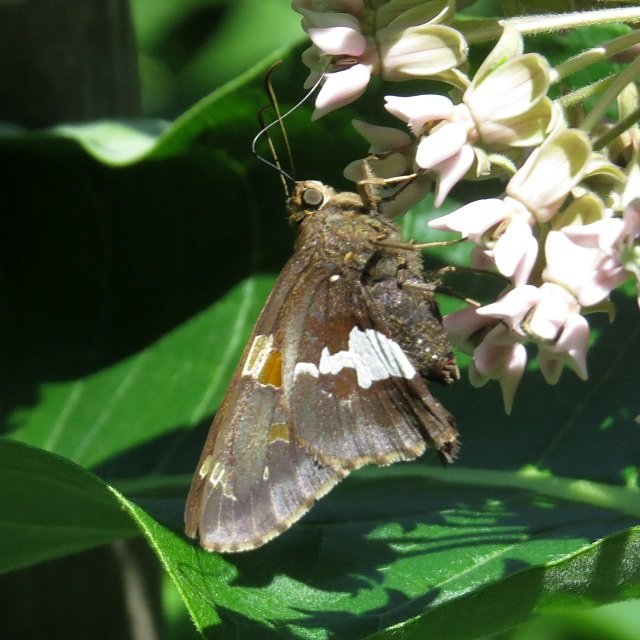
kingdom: Animalia
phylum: Arthropoda
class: Insecta
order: Lepidoptera
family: Hesperiidae
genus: Epargyreus
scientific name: Epargyreus clarus
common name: Silver-spotted Skipper
